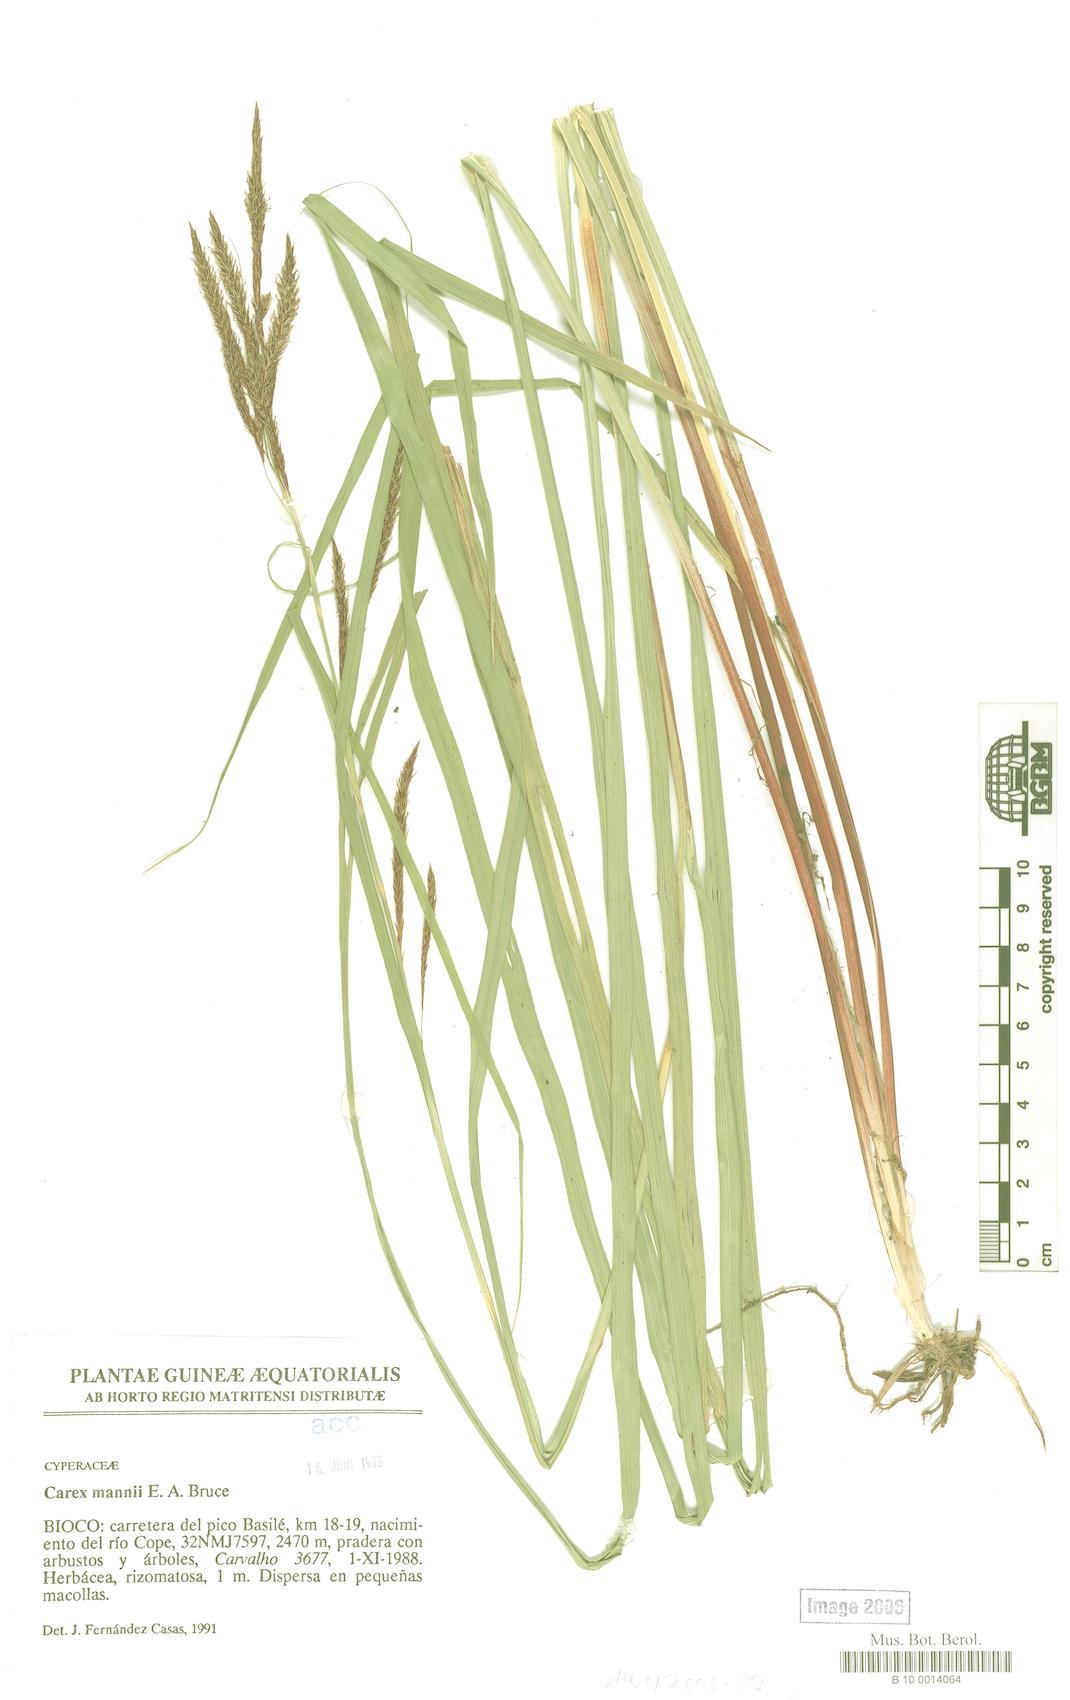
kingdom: Plantae
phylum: Tracheophyta
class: Liliopsida
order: Poales
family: Cyperaceae
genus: Carex
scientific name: Carex mannii
